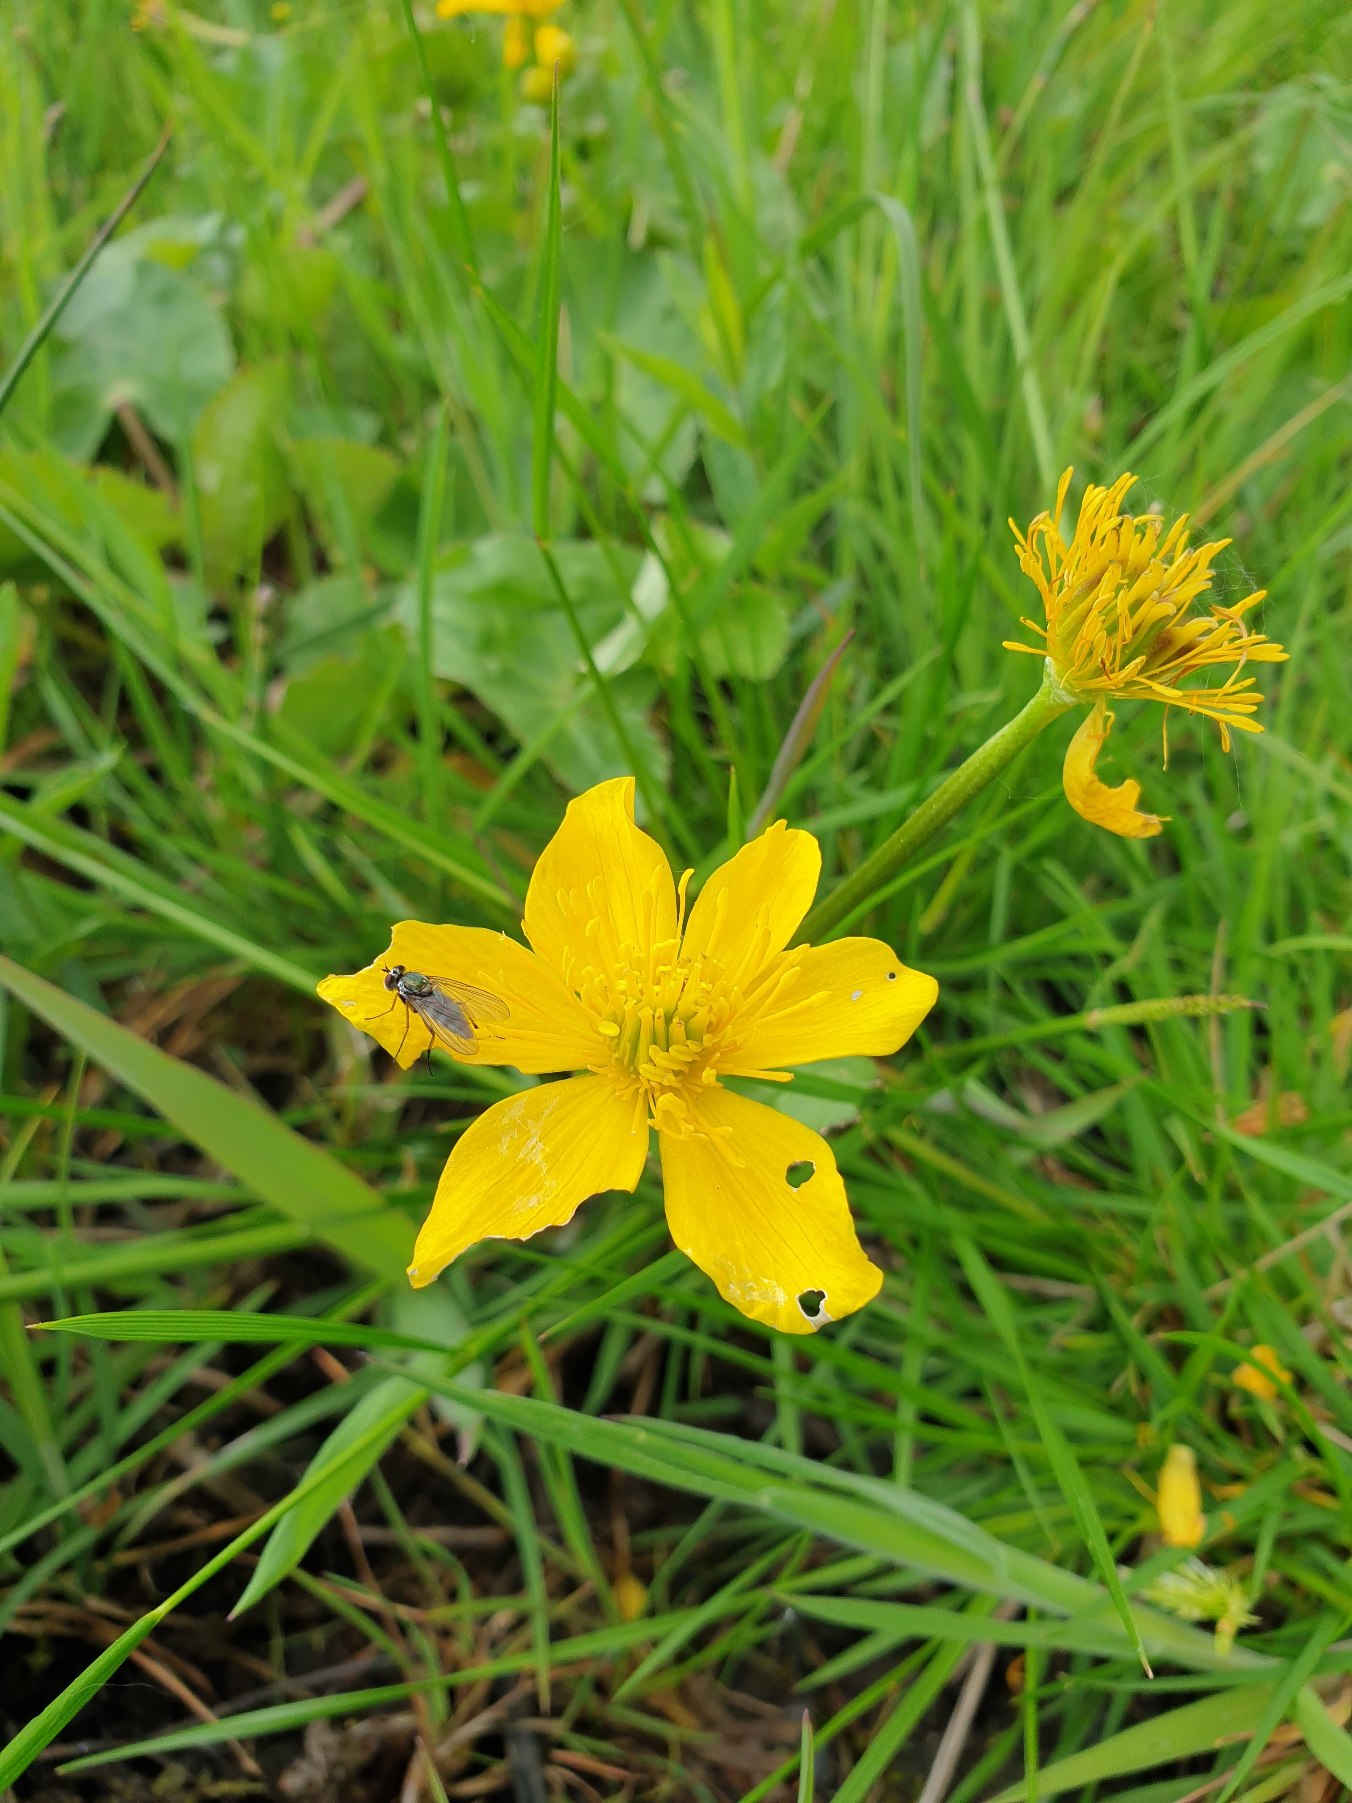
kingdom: Plantae
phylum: Tracheophyta
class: Magnoliopsida
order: Ranunculales
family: Ranunculaceae
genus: Caltha
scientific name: Caltha palustris
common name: Eng-kabbeleje
